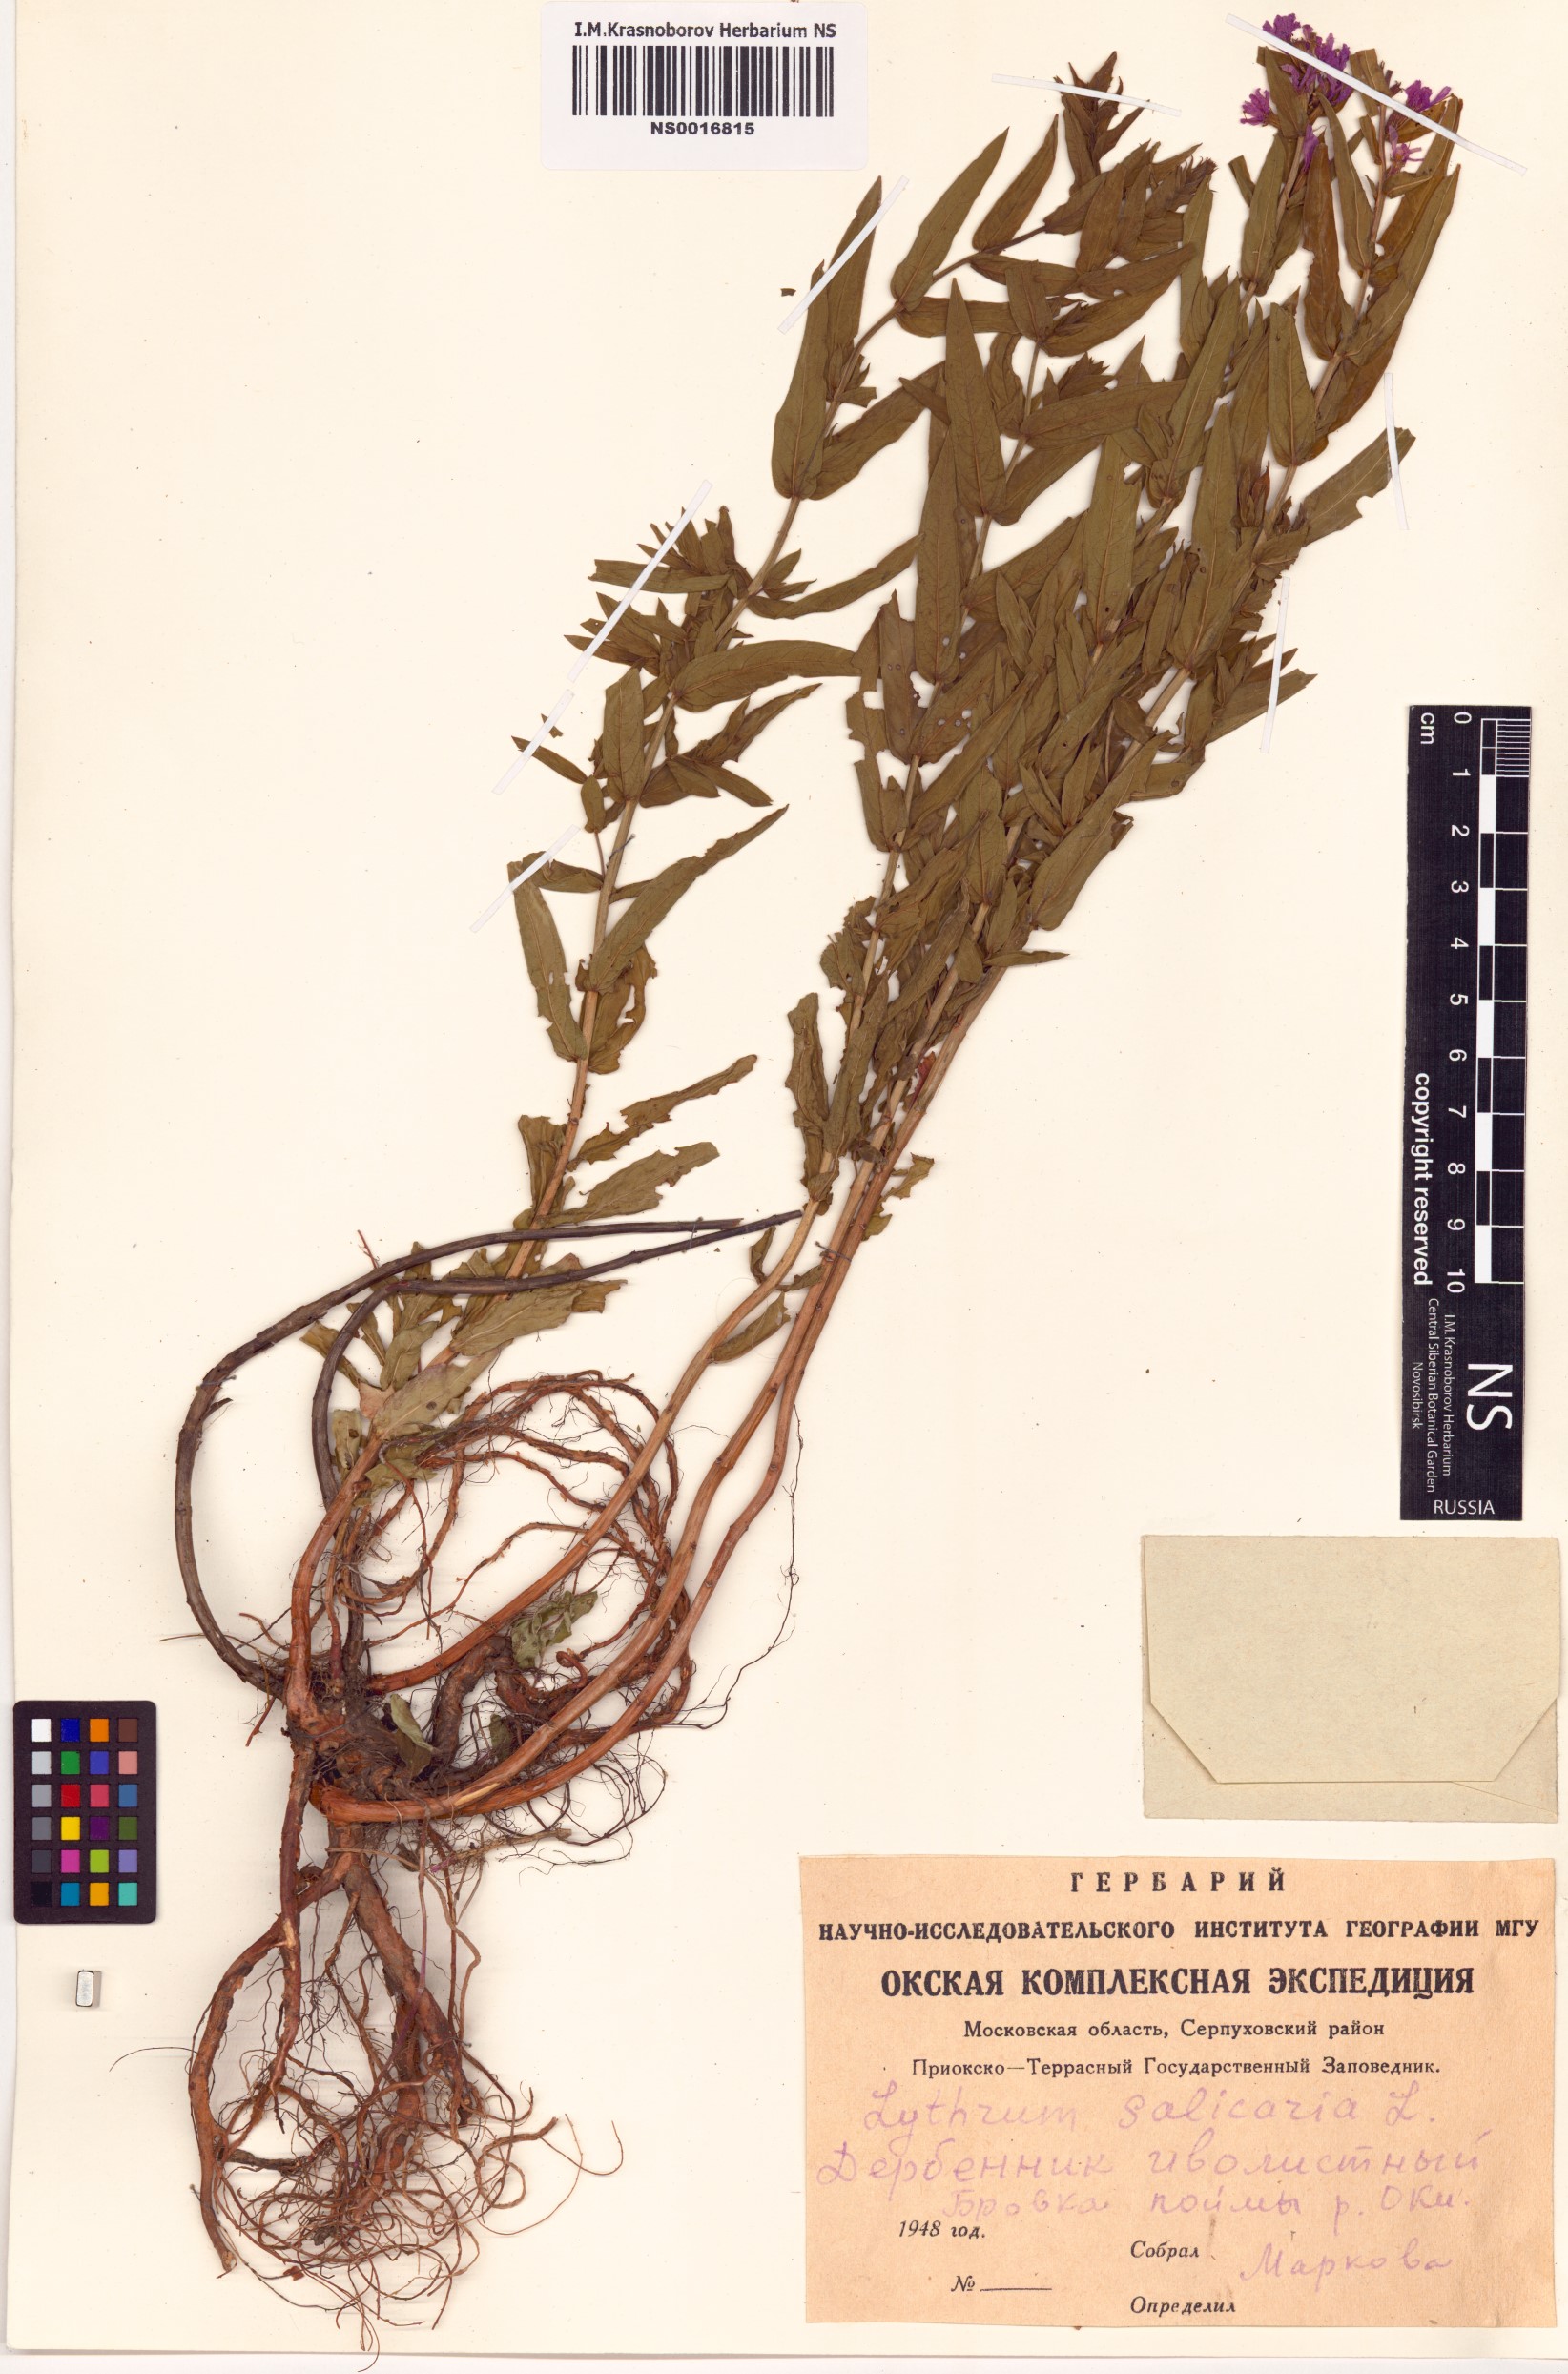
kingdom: Plantae
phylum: Tracheophyta
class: Magnoliopsida
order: Myrtales
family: Lythraceae
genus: Lythrum
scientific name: Lythrum salicaria
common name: Purple loosestrife
